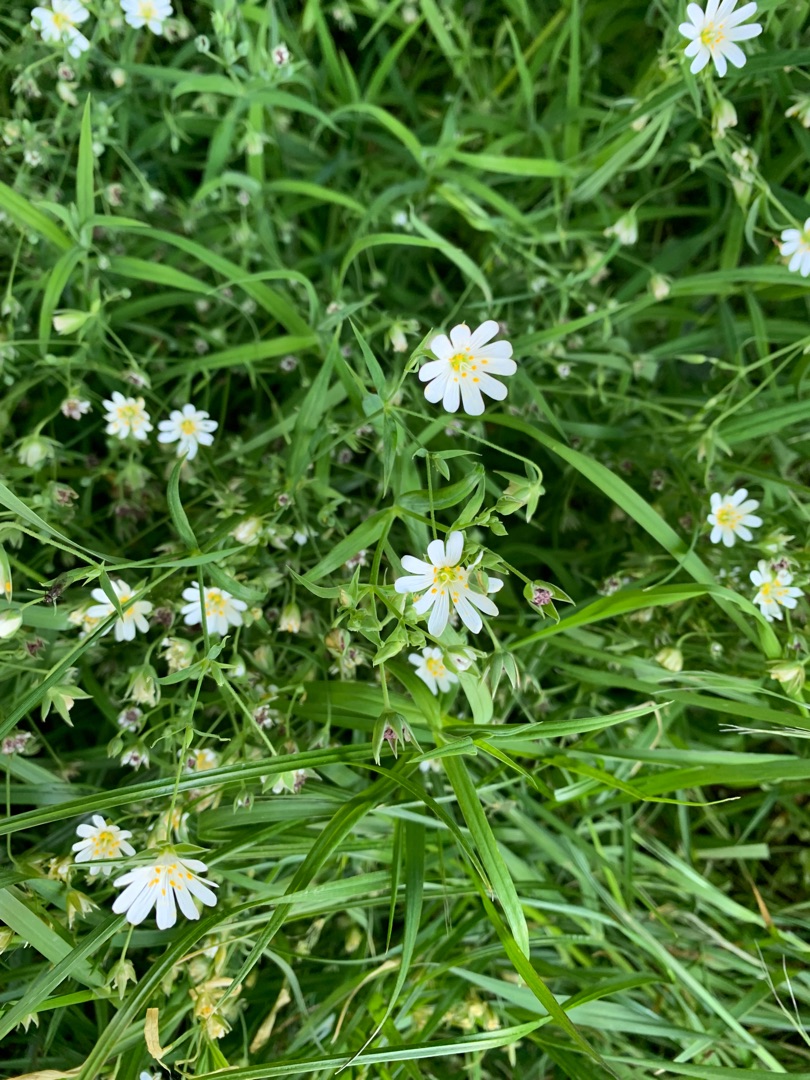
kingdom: Plantae
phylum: Tracheophyta
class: Magnoliopsida
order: Caryophyllales
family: Caryophyllaceae
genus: Rabelera
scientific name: Rabelera holostea
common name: Stor fladstjerne
